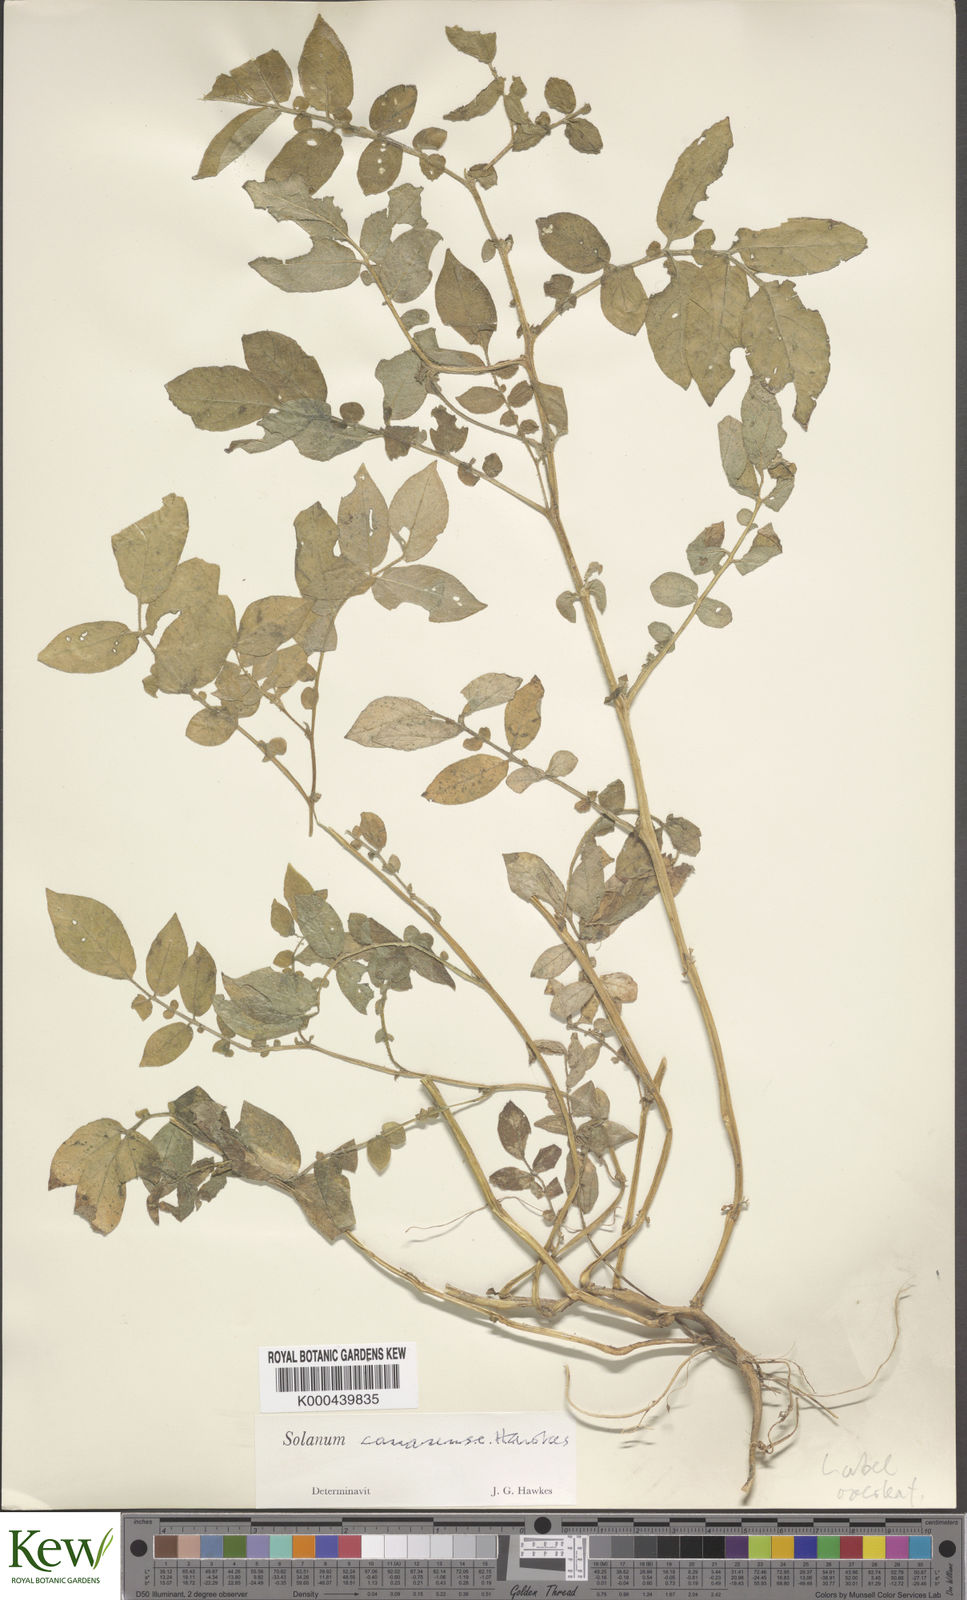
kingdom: Plantae
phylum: Tracheophyta
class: Magnoliopsida
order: Solanales
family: Solanaceae
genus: Solanum
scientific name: Solanum insanum
